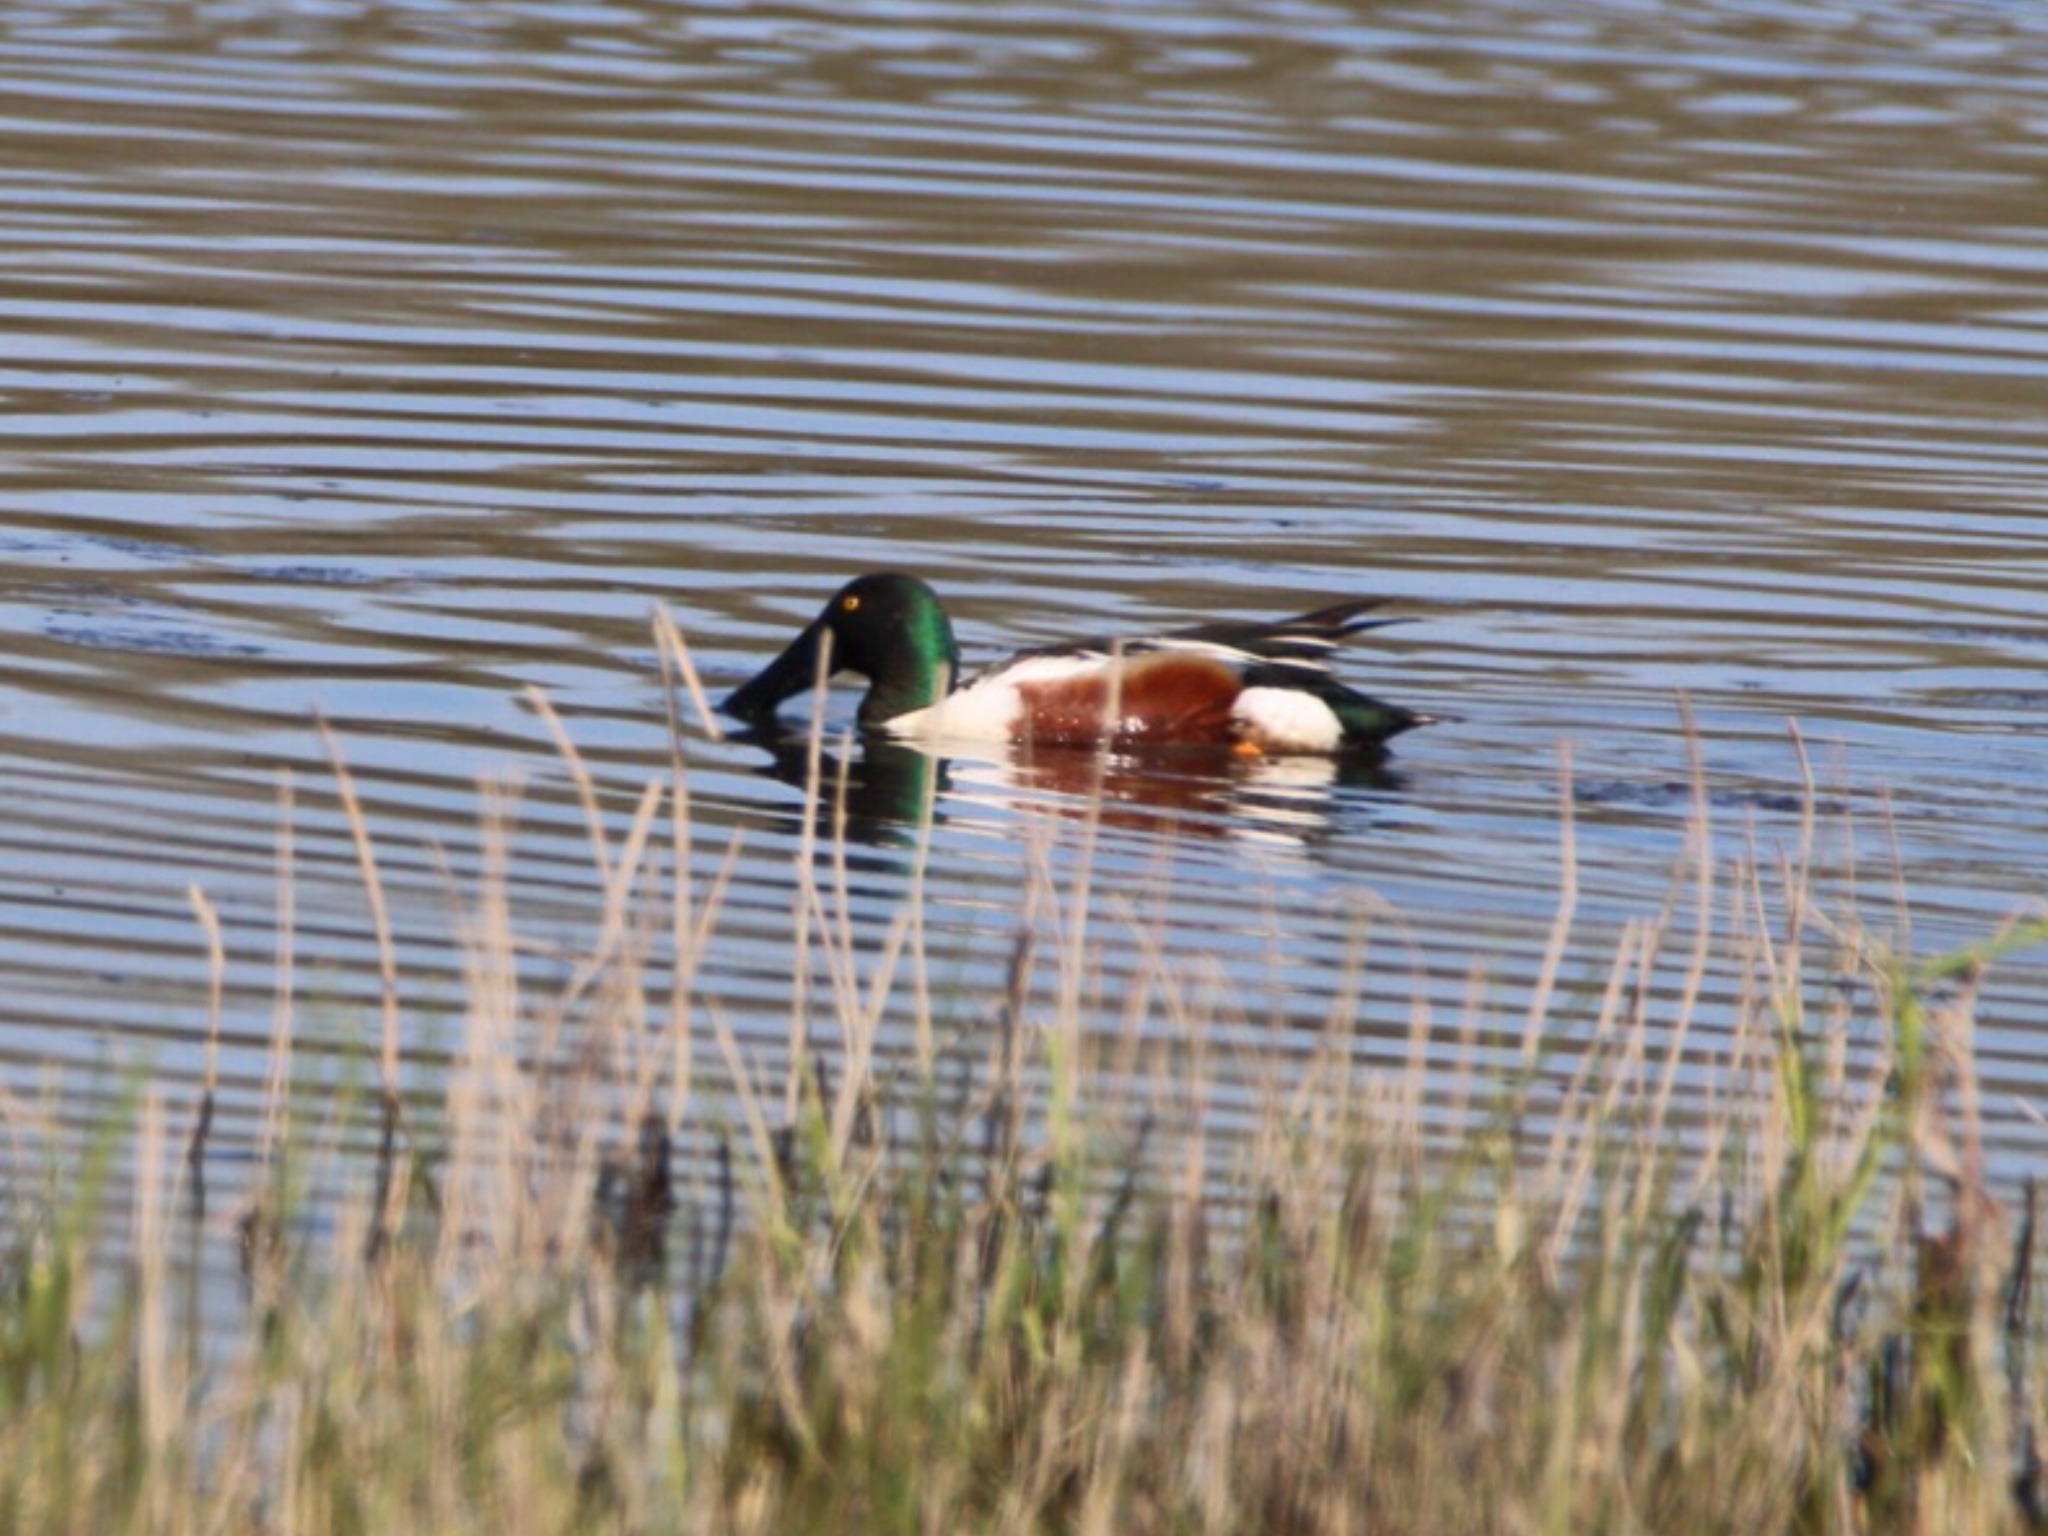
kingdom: Animalia
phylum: Chordata
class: Aves
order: Anseriformes
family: Anatidae
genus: Spatula
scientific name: Spatula clypeata
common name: Skeand
